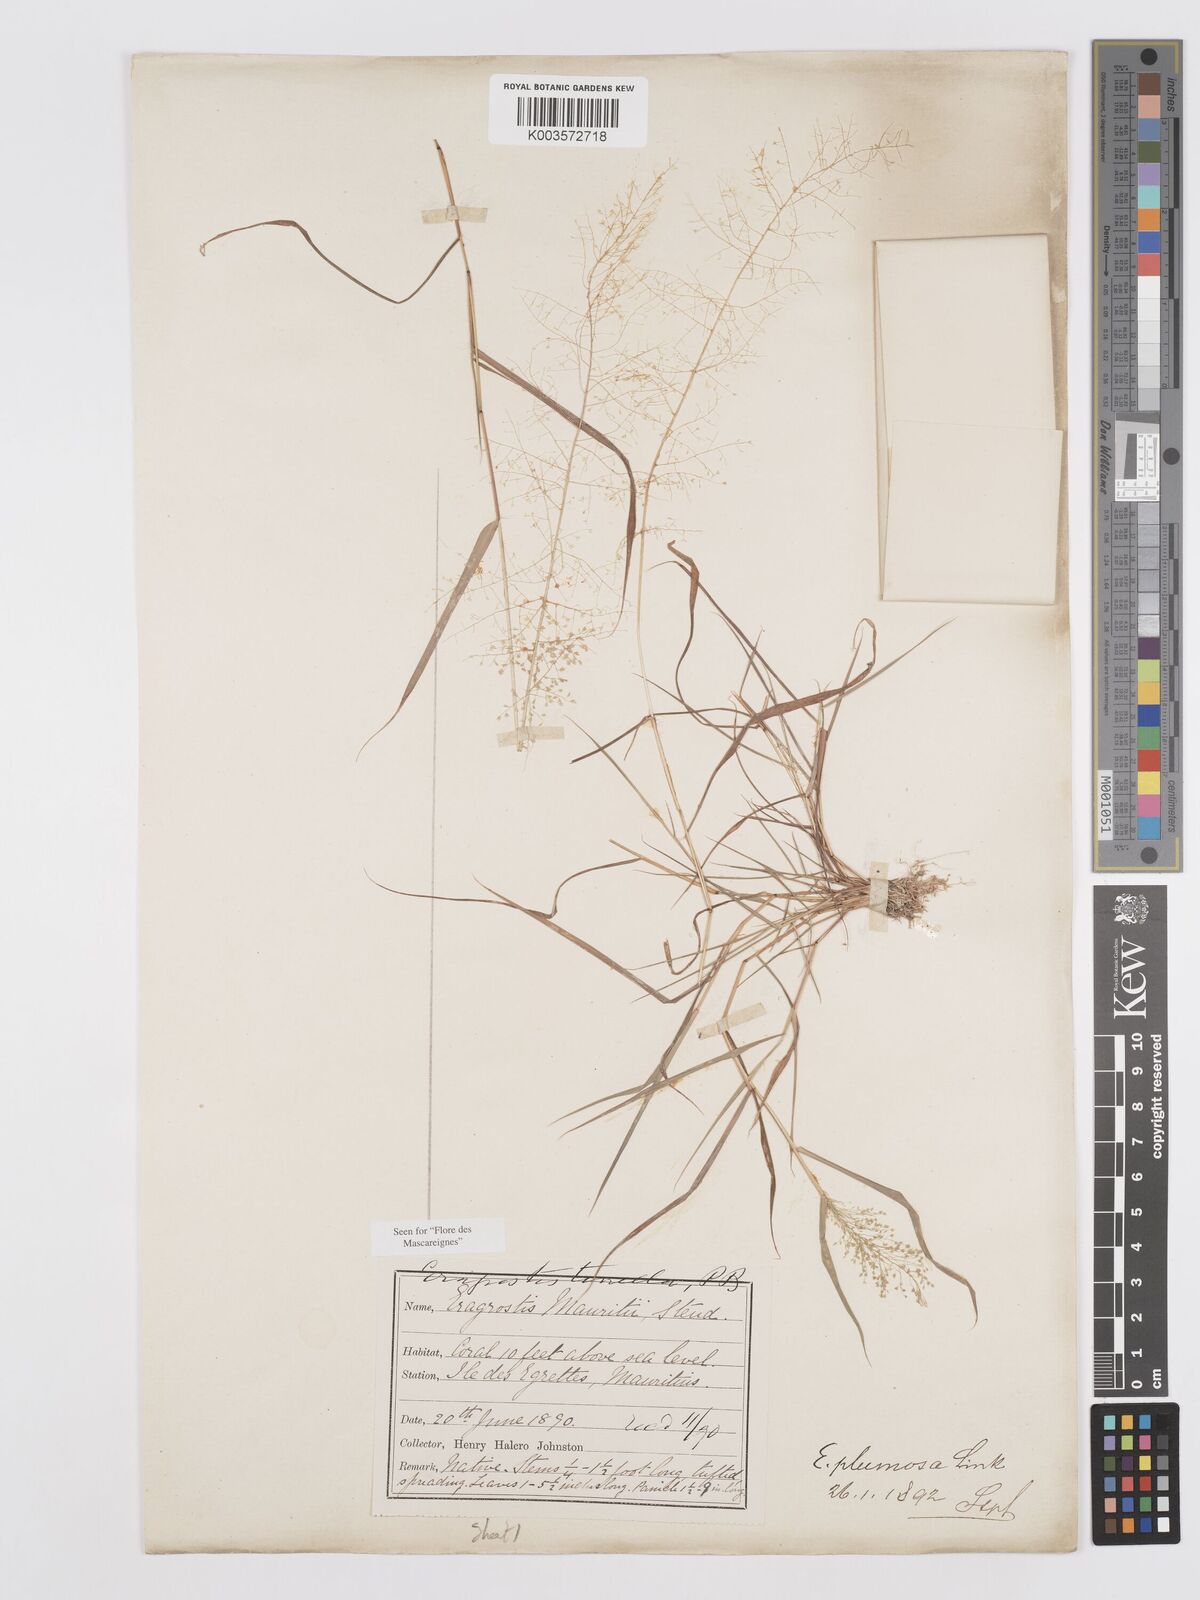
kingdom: Plantae
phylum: Tracheophyta
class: Liliopsida
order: Poales
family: Poaceae
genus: Eragrostis
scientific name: Eragrostis tenella
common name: Japanese lovegrass
